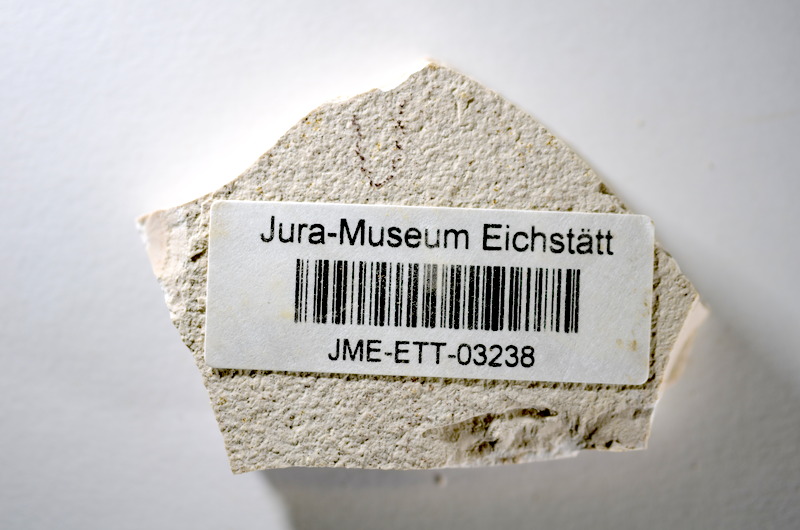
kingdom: Animalia
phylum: Chordata
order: Salmoniformes
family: Orthogonikleithridae
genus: Orthogonikleithrus
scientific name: Orthogonikleithrus hoelli
